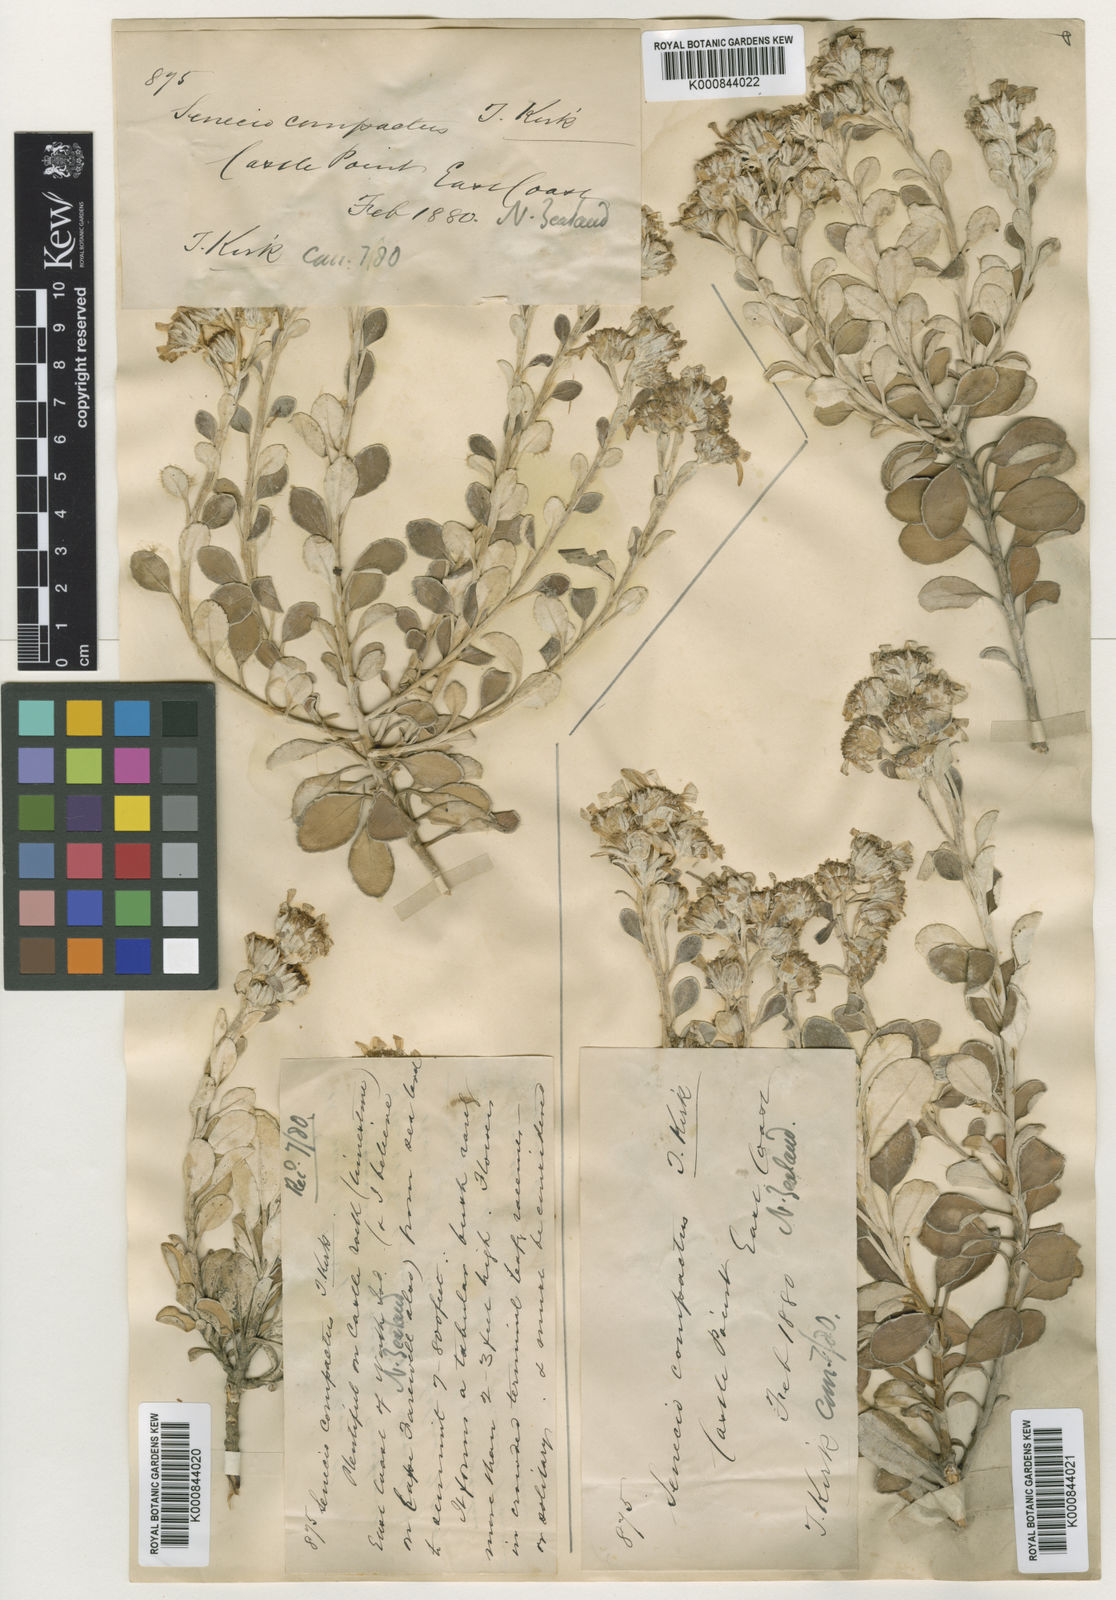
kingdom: Plantae
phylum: Tracheophyta
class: Magnoliopsida
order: Asterales
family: Asteraceae
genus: Brachyglottis
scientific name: Brachyglottis compacta
